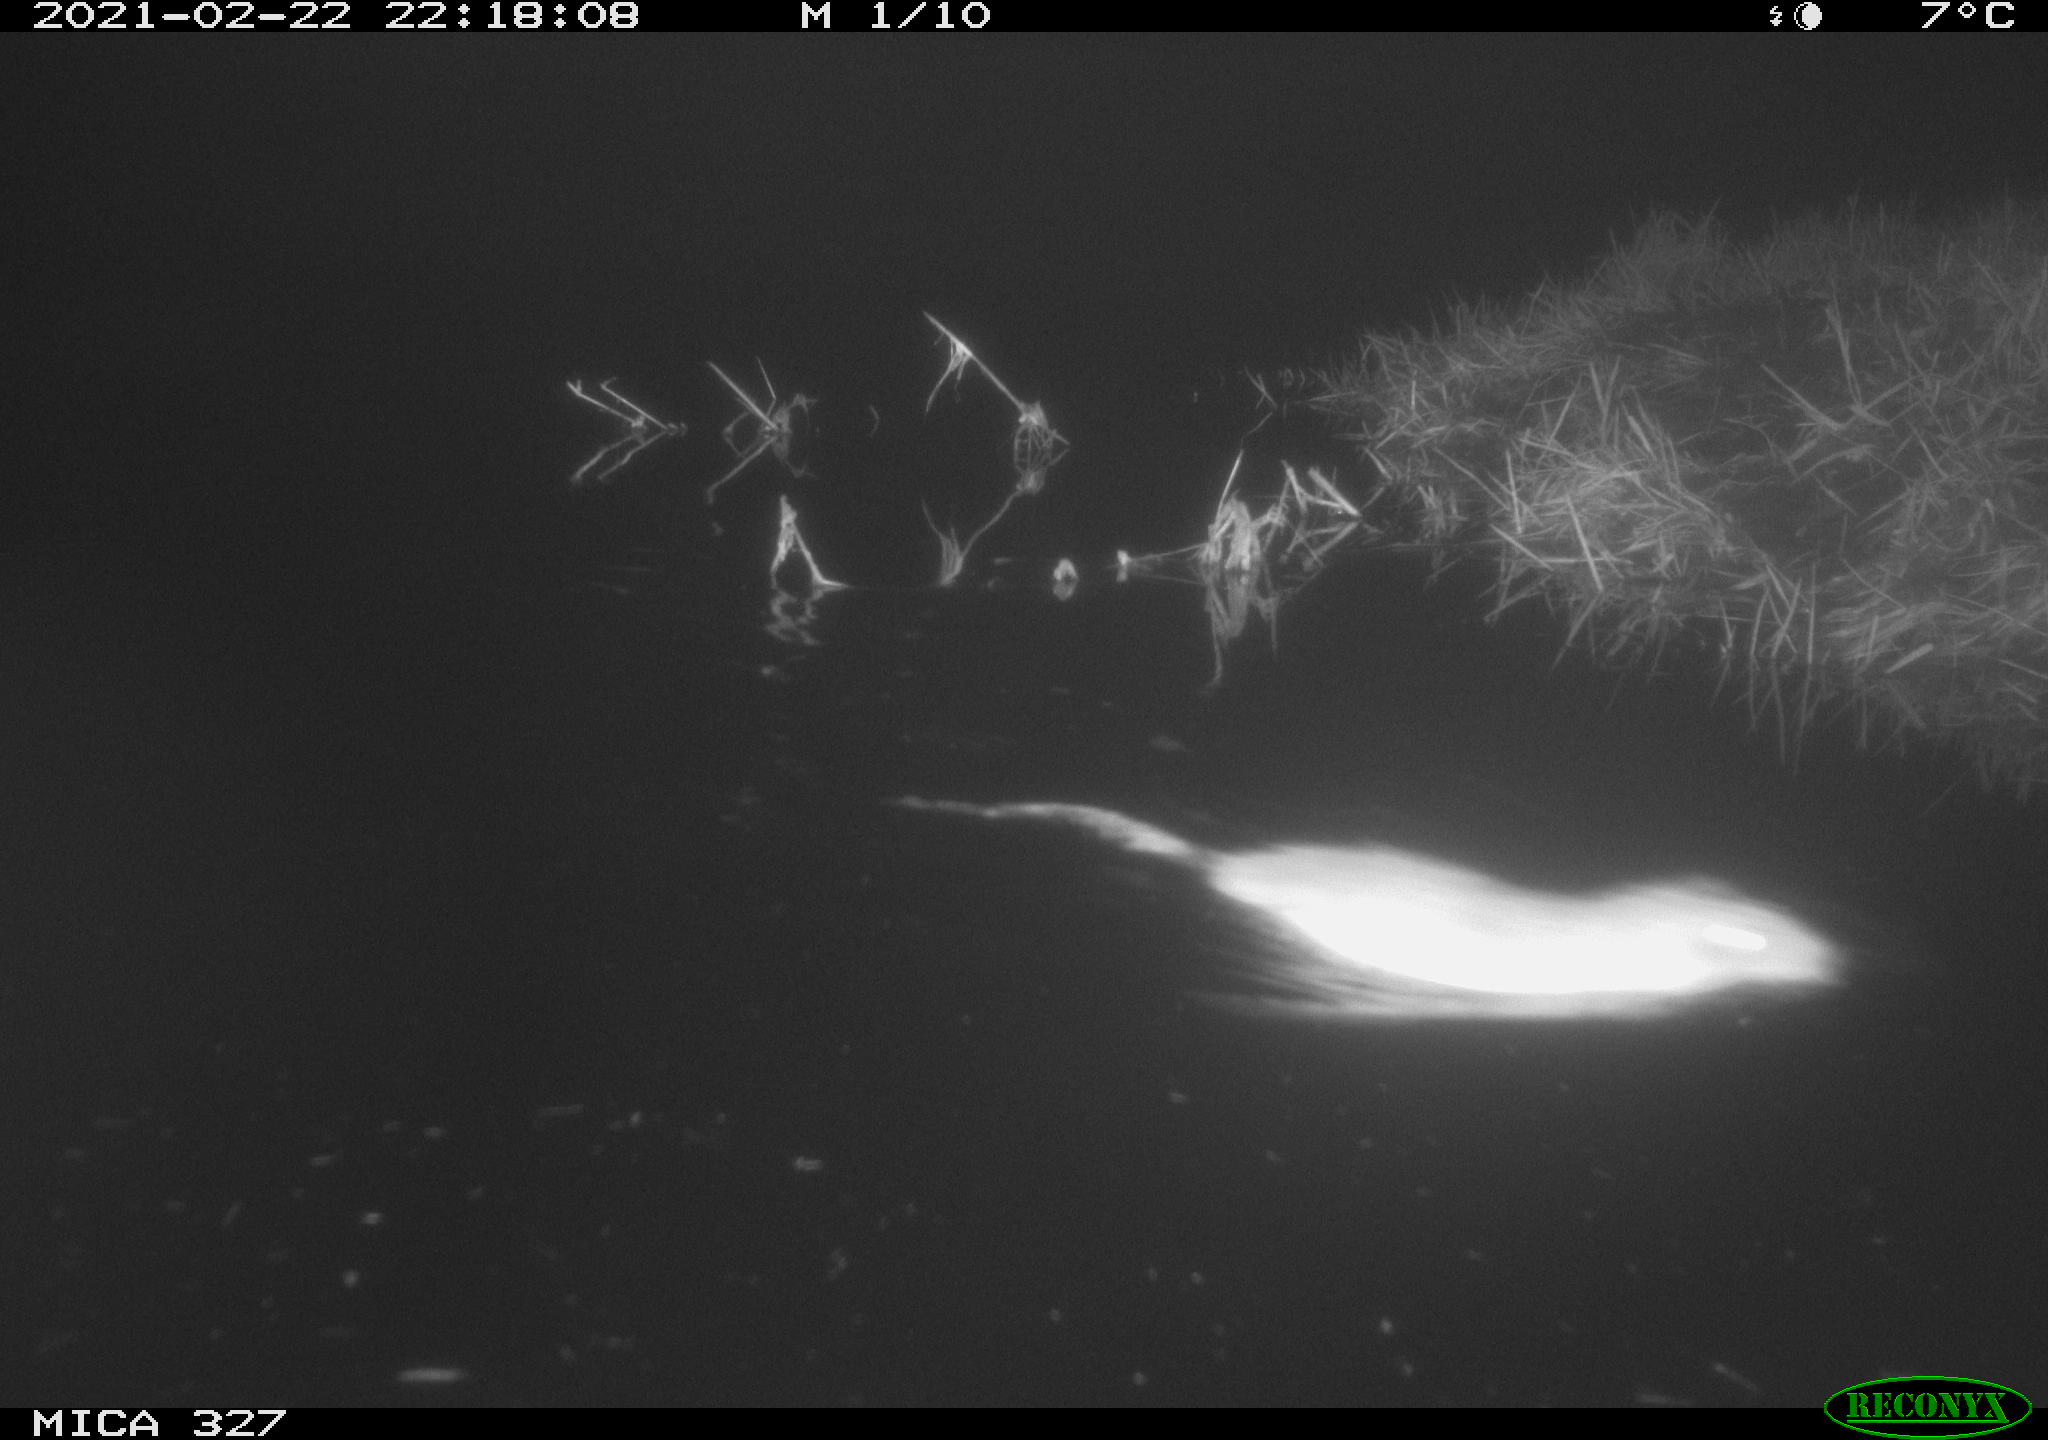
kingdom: Animalia
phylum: Chordata
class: Mammalia
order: Rodentia
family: Cricetidae
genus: Ondatra
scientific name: Ondatra zibethicus
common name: Muskrat
